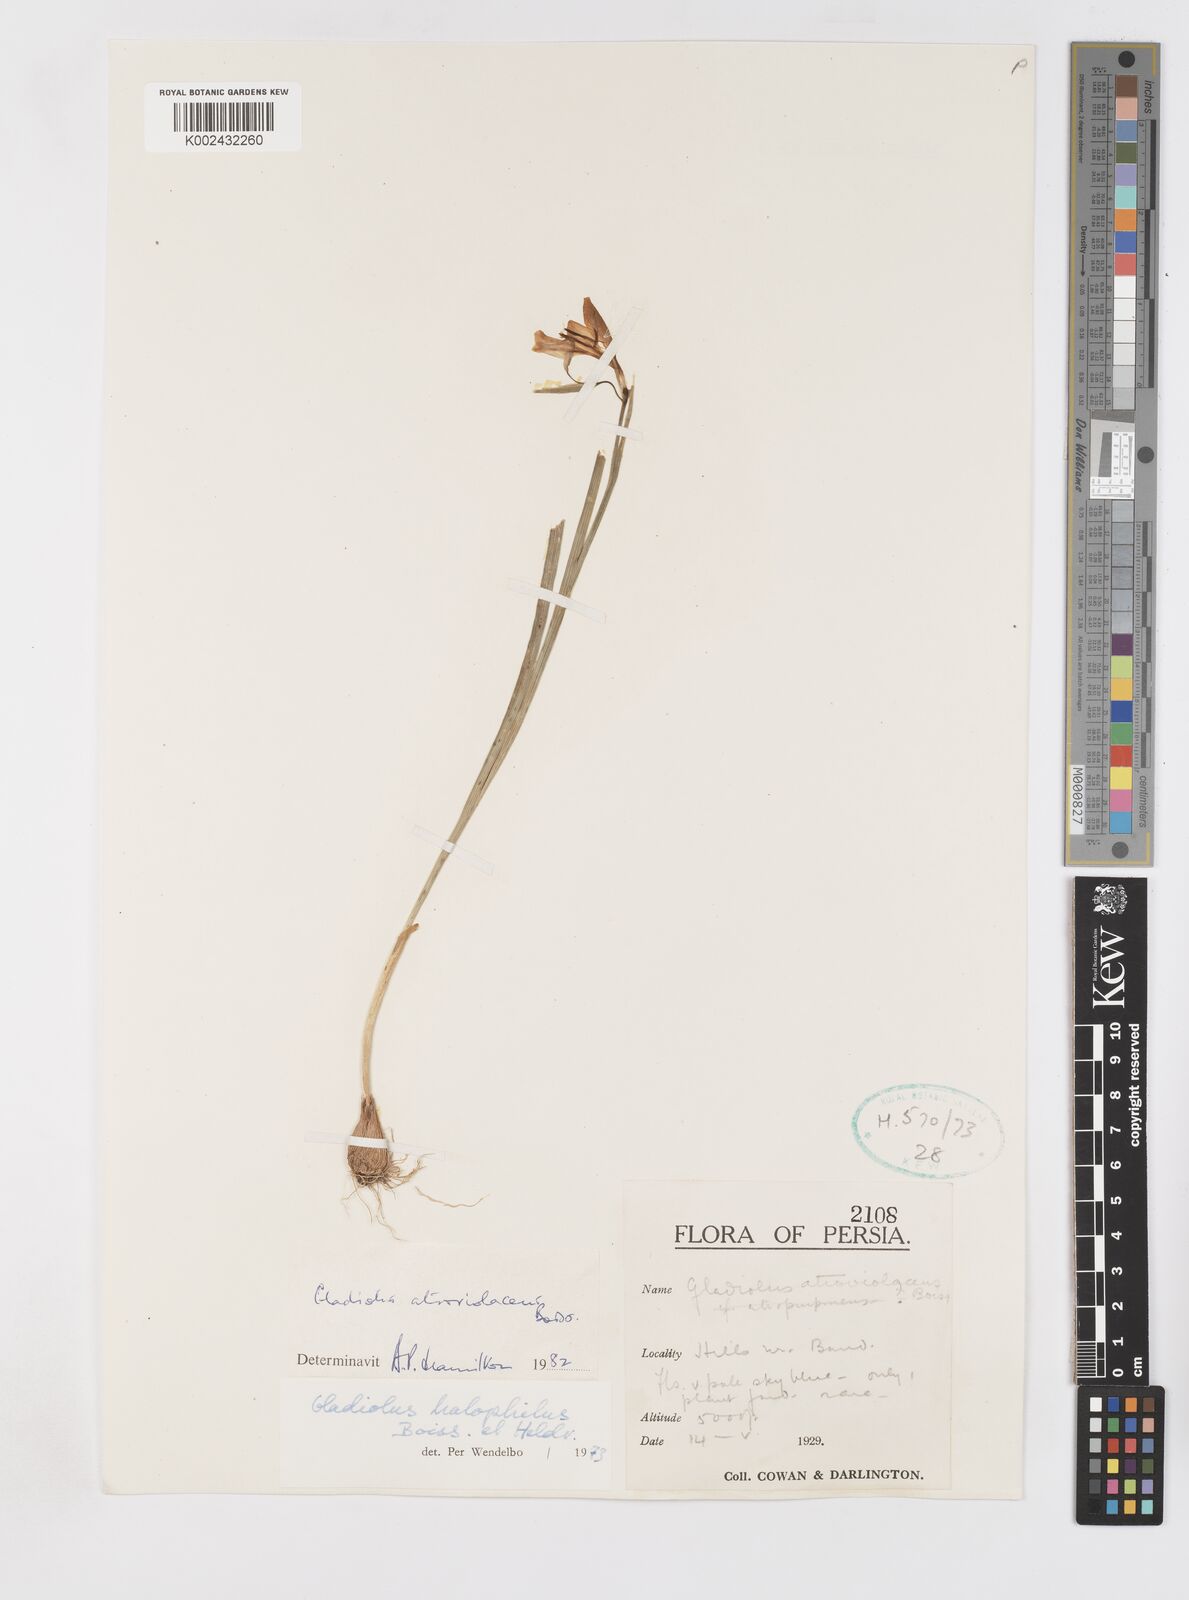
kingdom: Plantae
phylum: Tracheophyta
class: Liliopsida
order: Asparagales
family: Iridaceae
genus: Gladiolus
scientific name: Gladiolus atroviolaceus
